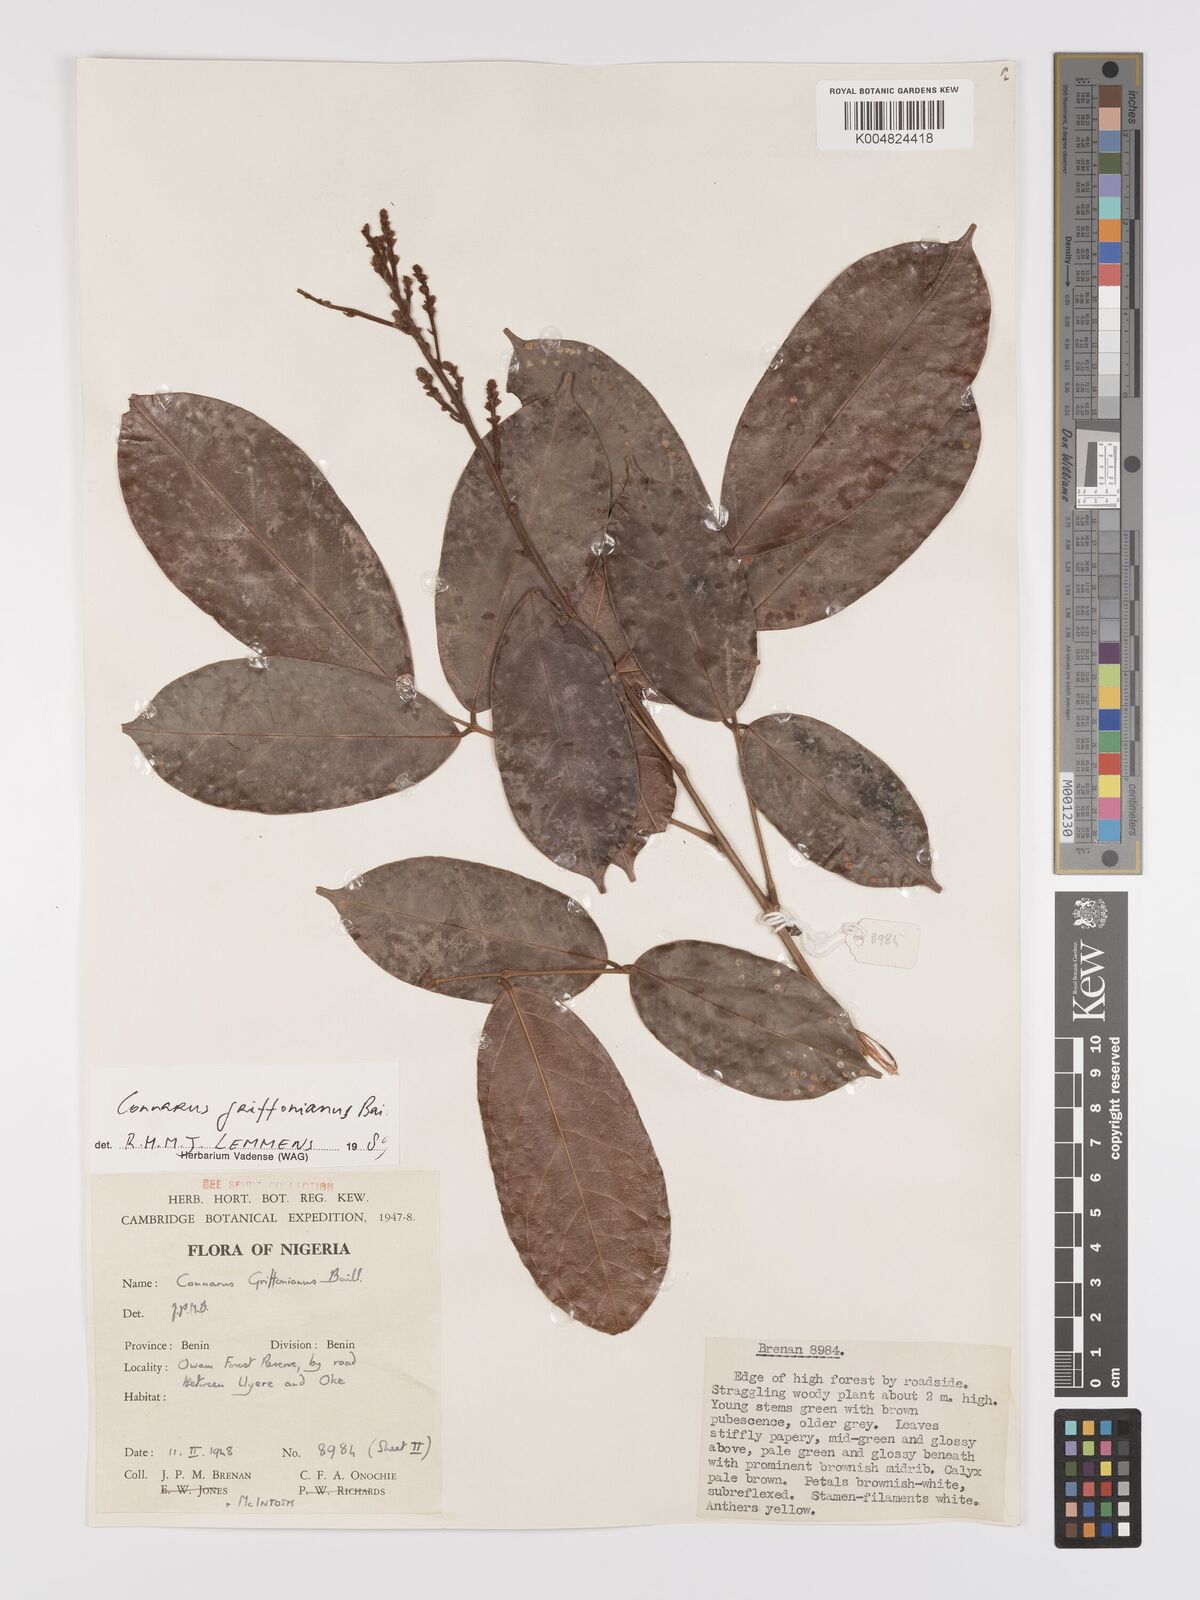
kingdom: Plantae
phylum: Tracheophyta
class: Magnoliopsida
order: Oxalidales
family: Connaraceae
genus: Connarus
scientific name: Connarus griffonianus
